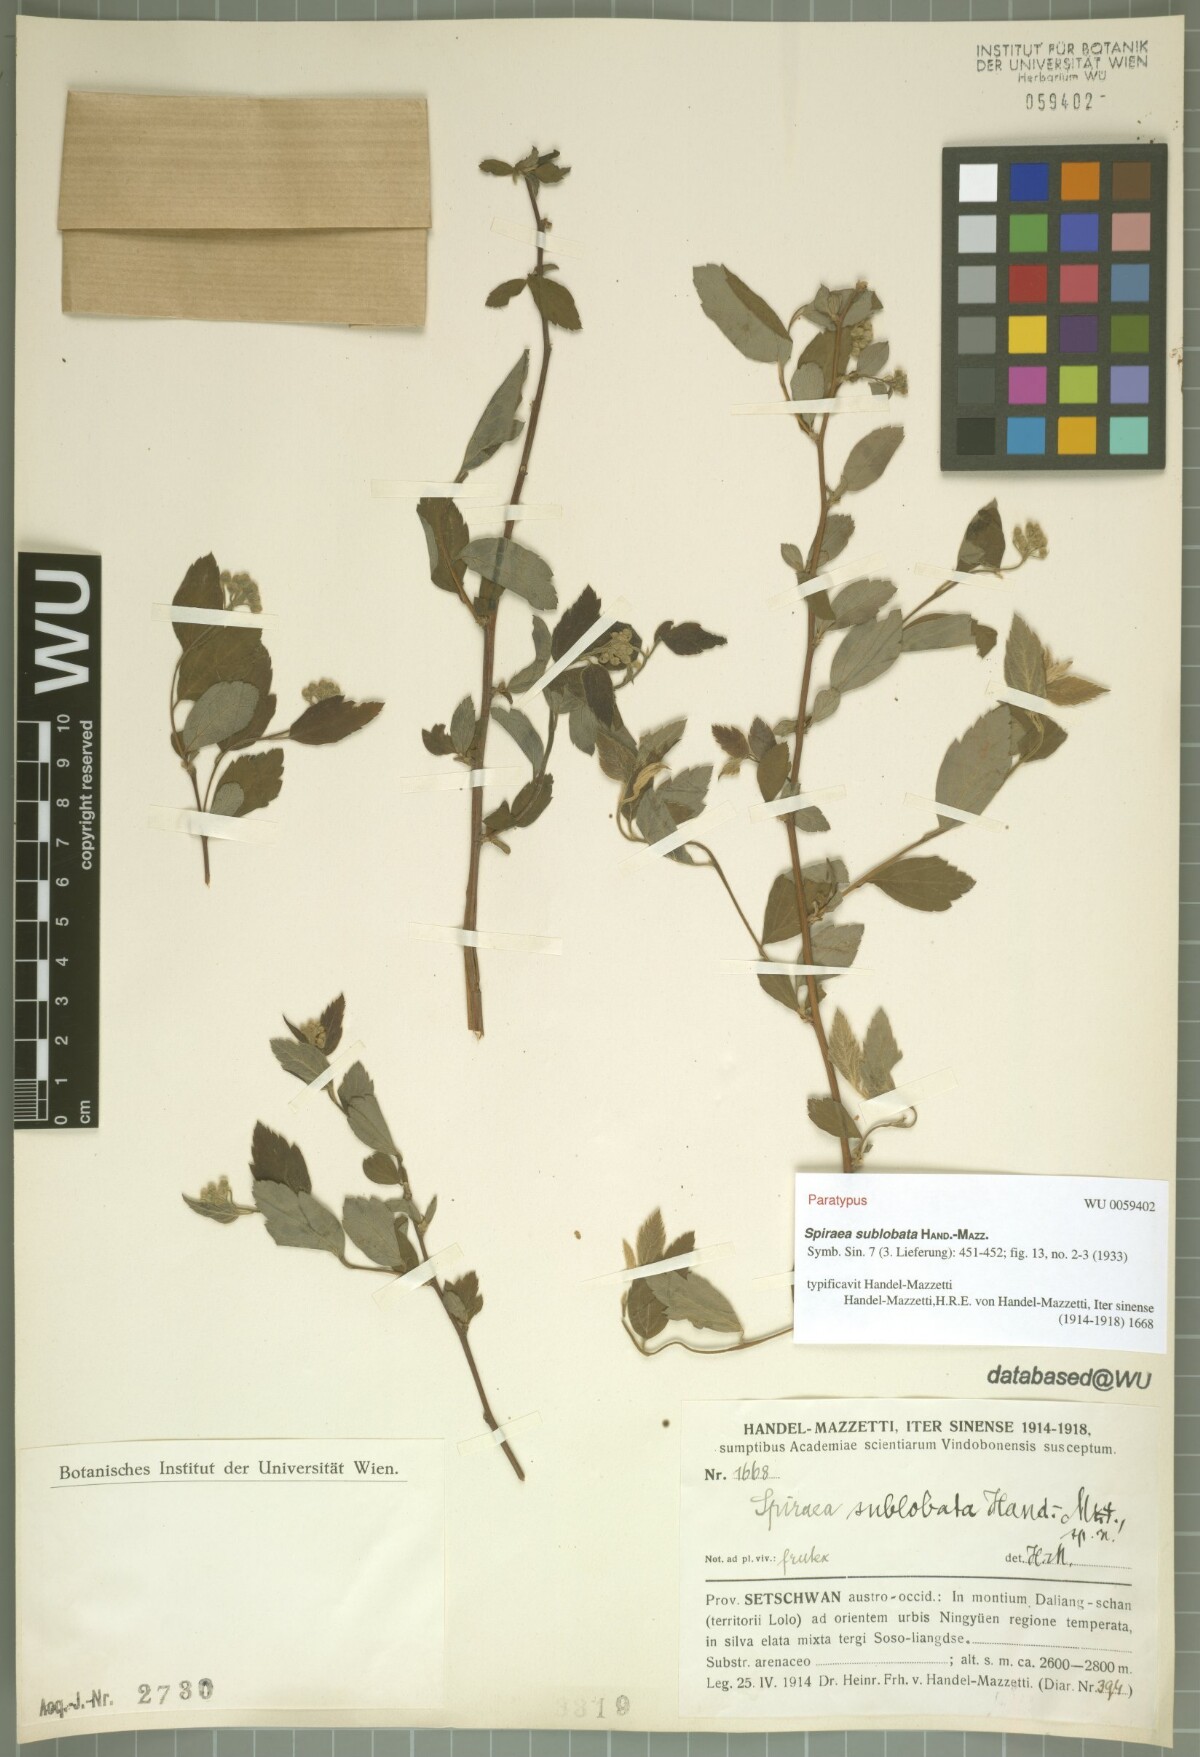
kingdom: Plantae
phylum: Tracheophyta
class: Magnoliopsida
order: Rosales
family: Rosaceae
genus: Spiraea
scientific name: Spiraea sublobata
